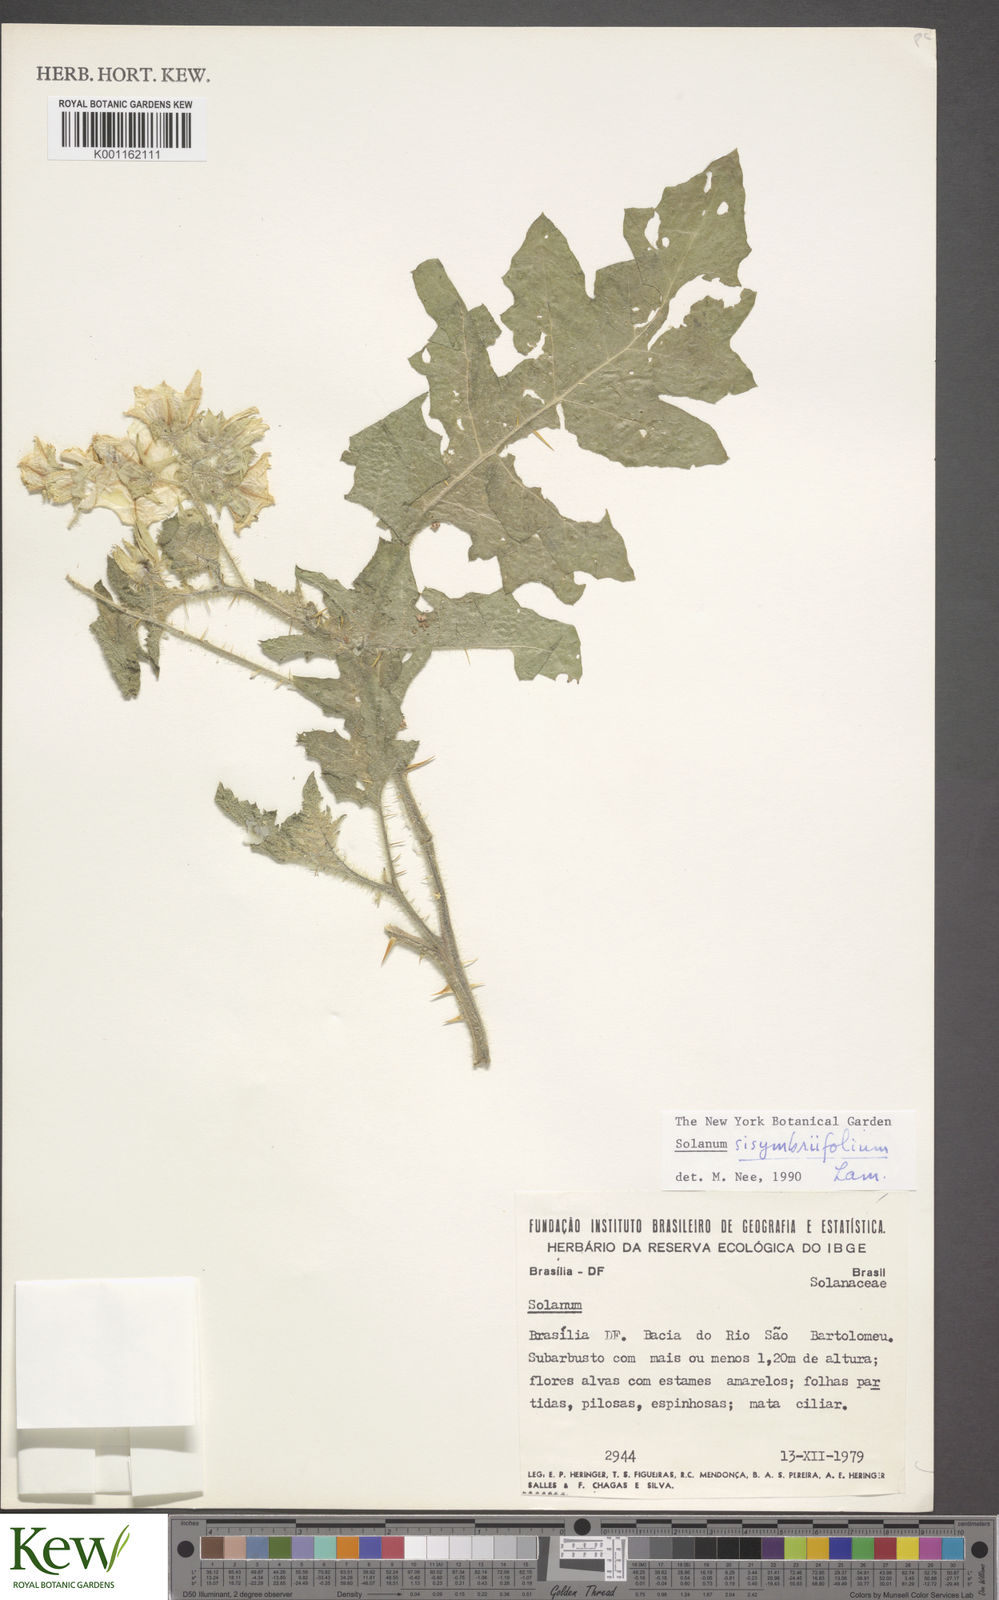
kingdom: Plantae
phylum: Tracheophyta
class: Magnoliopsida
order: Solanales
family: Solanaceae
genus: Solanum
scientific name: Solanum sisymbriifolium
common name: Red buffalo-bur
